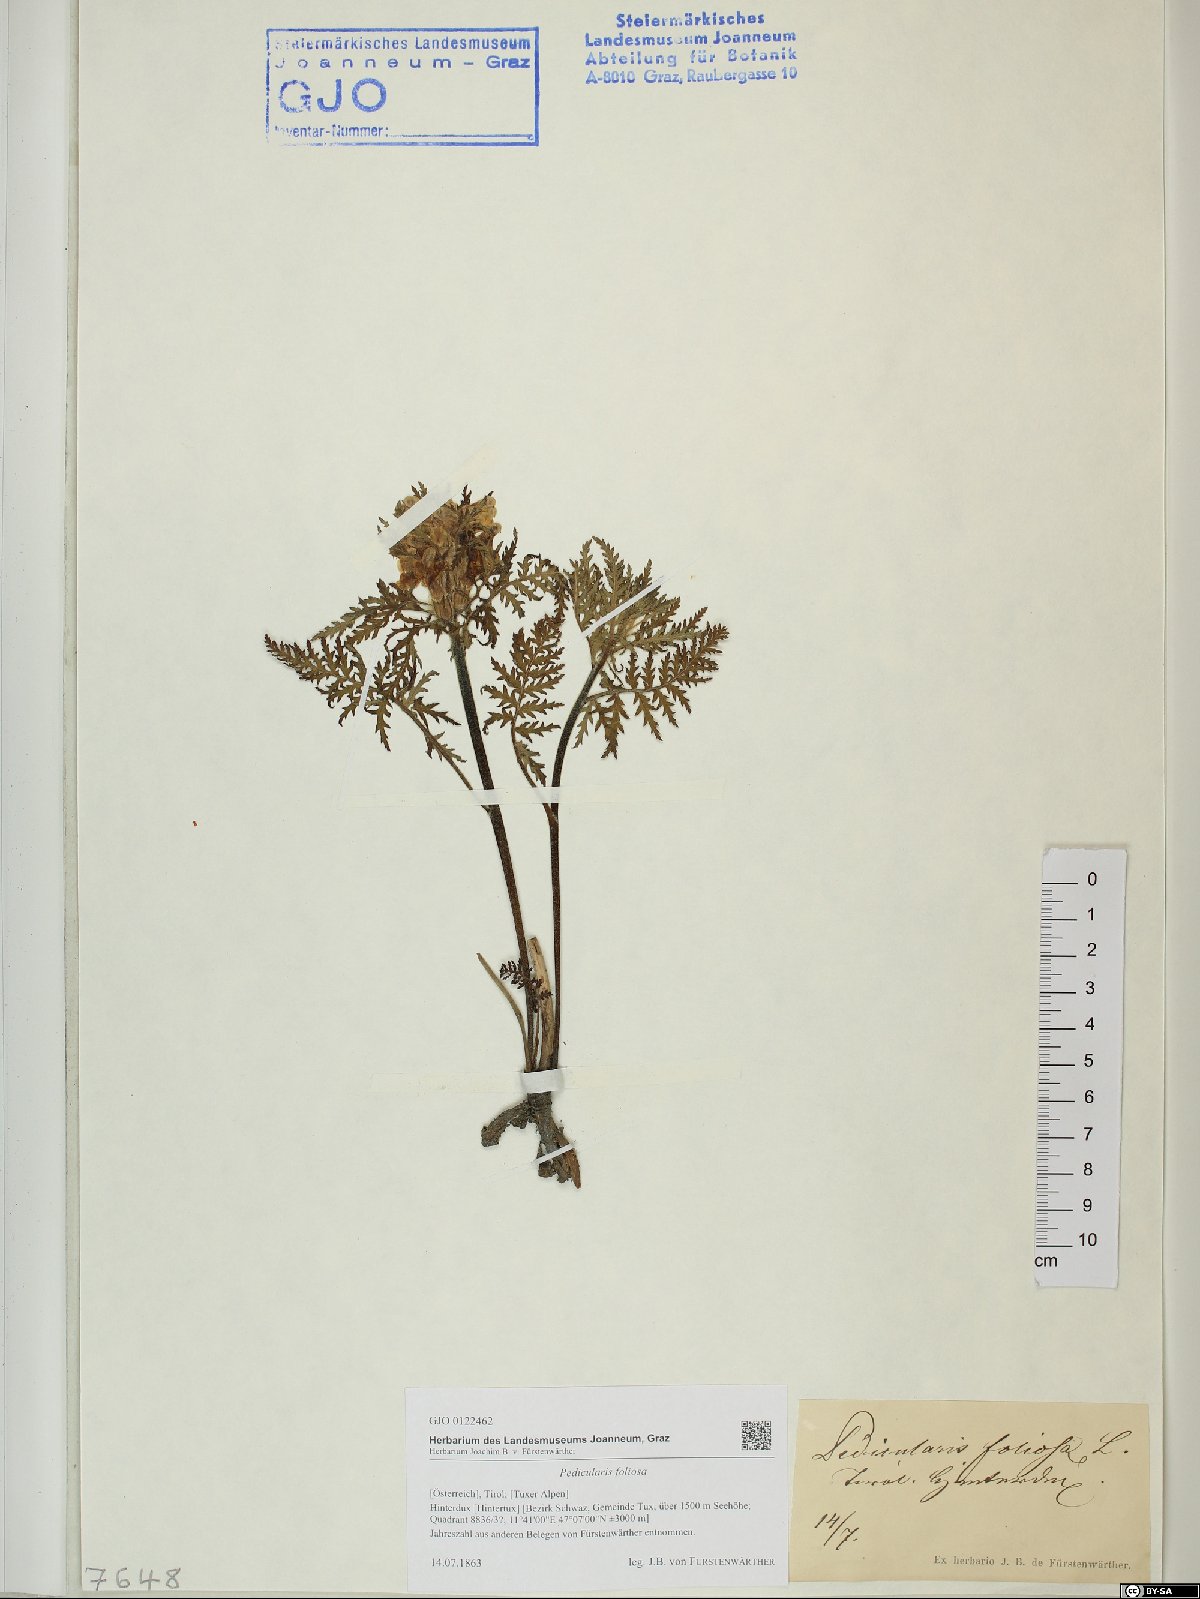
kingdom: Plantae
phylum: Tracheophyta
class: Magnoliopsida
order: Lamiales
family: Orobanchaceae
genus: Pedicularis
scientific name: Pedicularis foliosa
